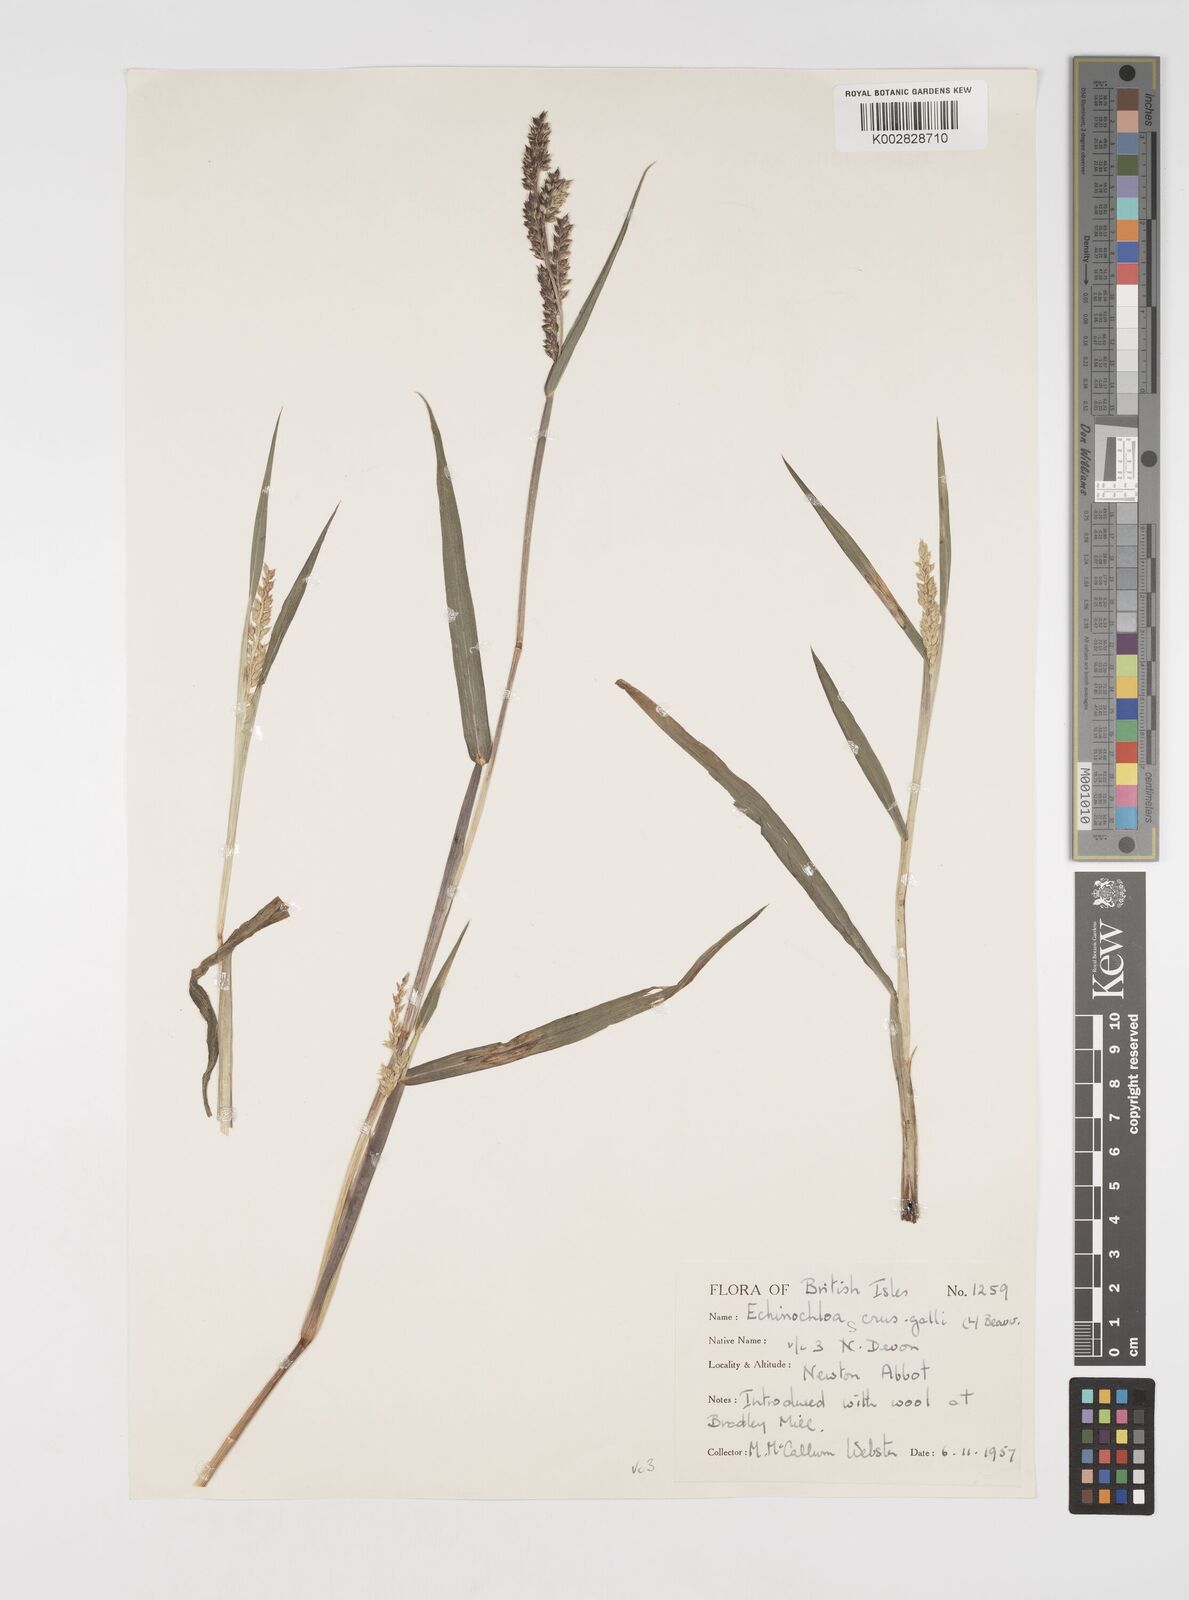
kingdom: Plantae
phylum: Tracheophyta
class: Liliopsida
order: Poales
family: Poaceae
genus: Echinochloa
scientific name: Echinochloa crus-galli
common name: Cockspur
